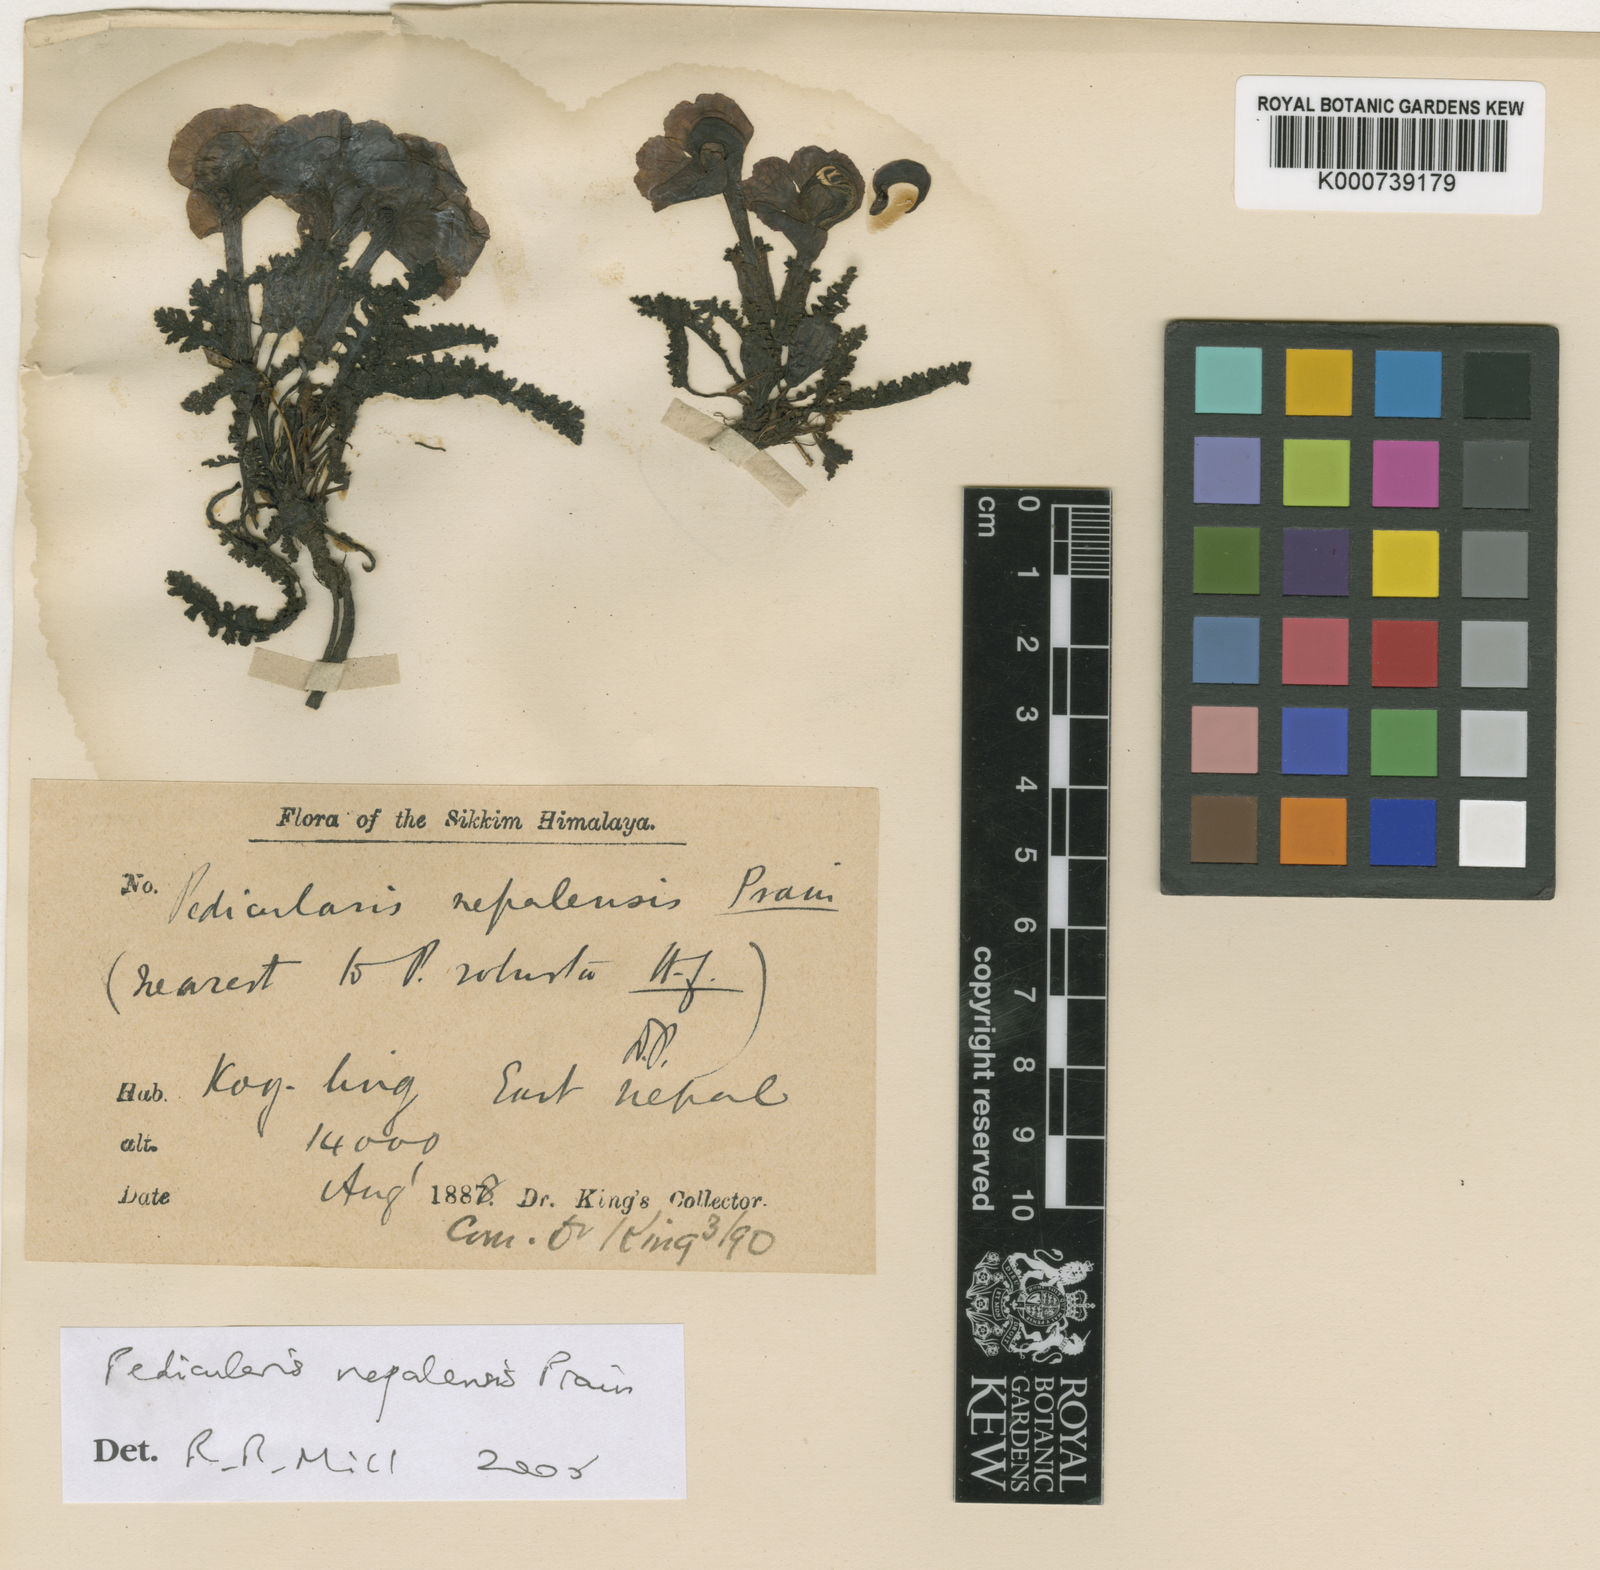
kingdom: Plantae
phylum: Tracheophyta
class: Magnoliopsida
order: Lamiales
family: Orobanchaceae
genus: Pedicularis
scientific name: Pedicularis nepalensis
